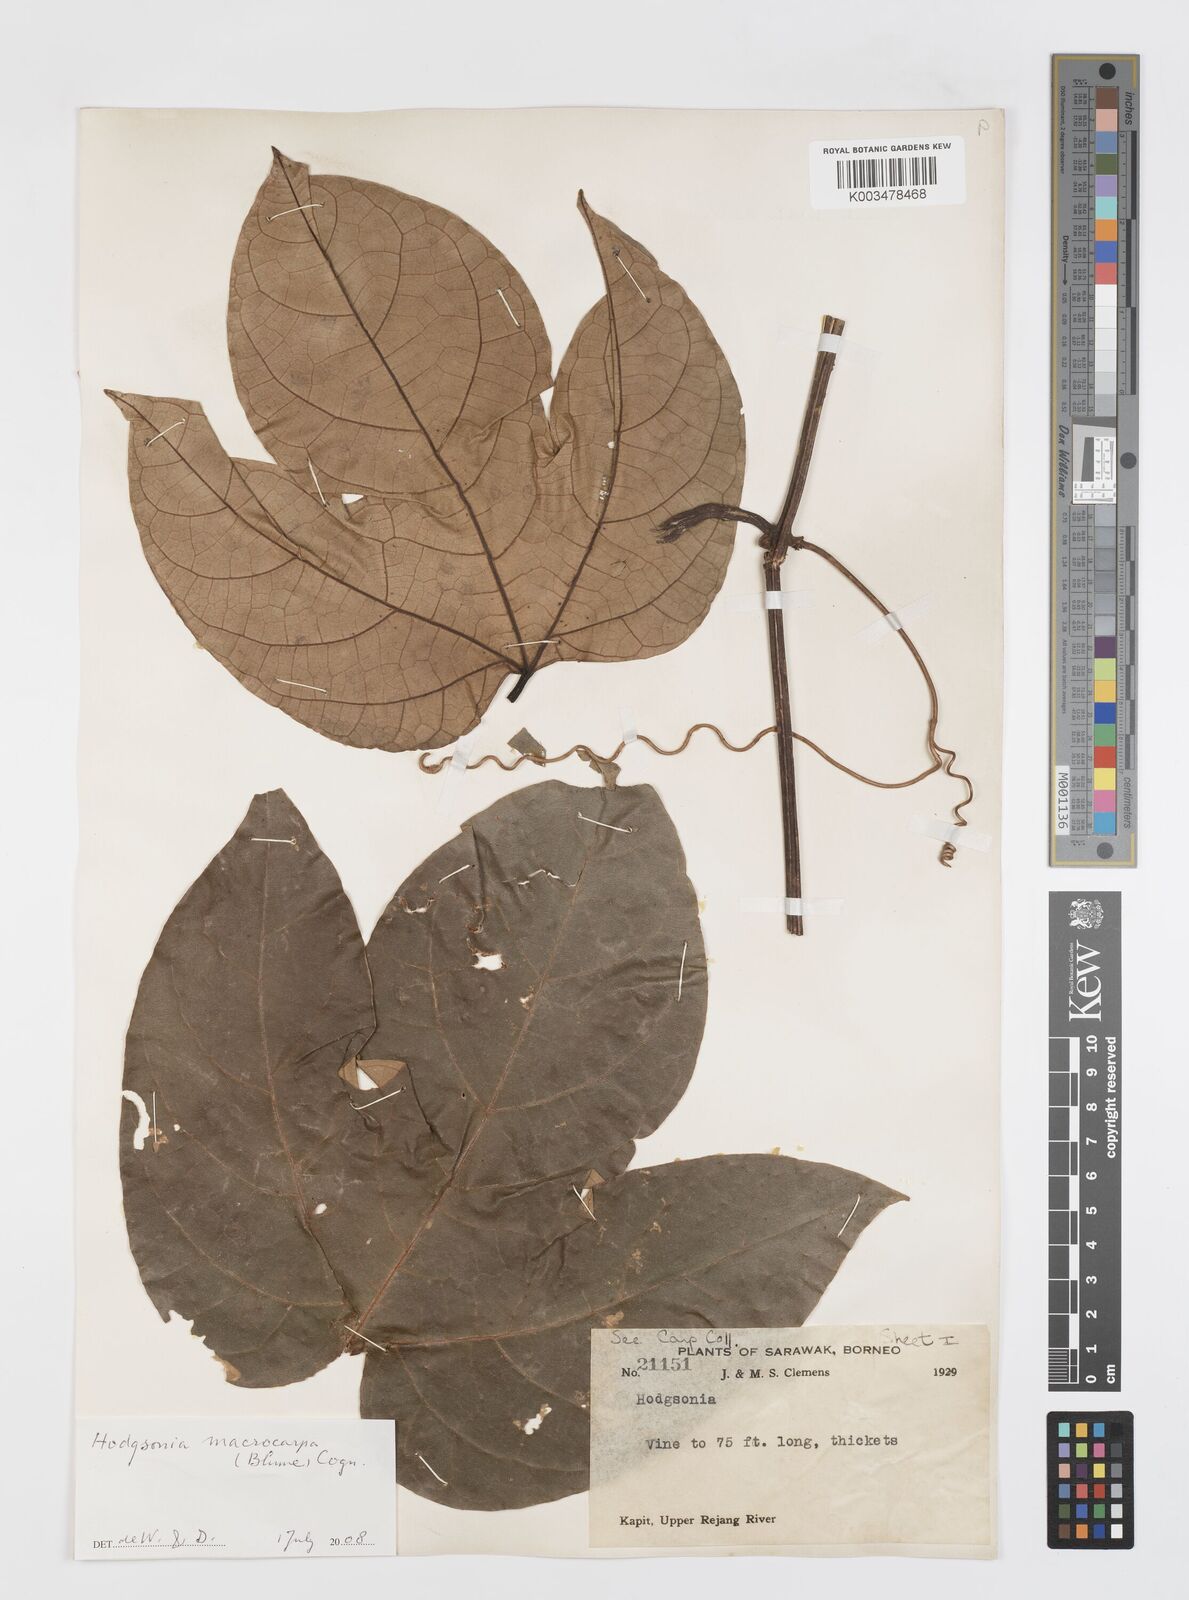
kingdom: Plantae
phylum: Tracheophyta
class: Magnoliopsida
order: Cucurbitales
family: Cucurbitaceae
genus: Hodgsonia
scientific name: Hodgsonia macrocarpa
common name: Chinese lardfruit
